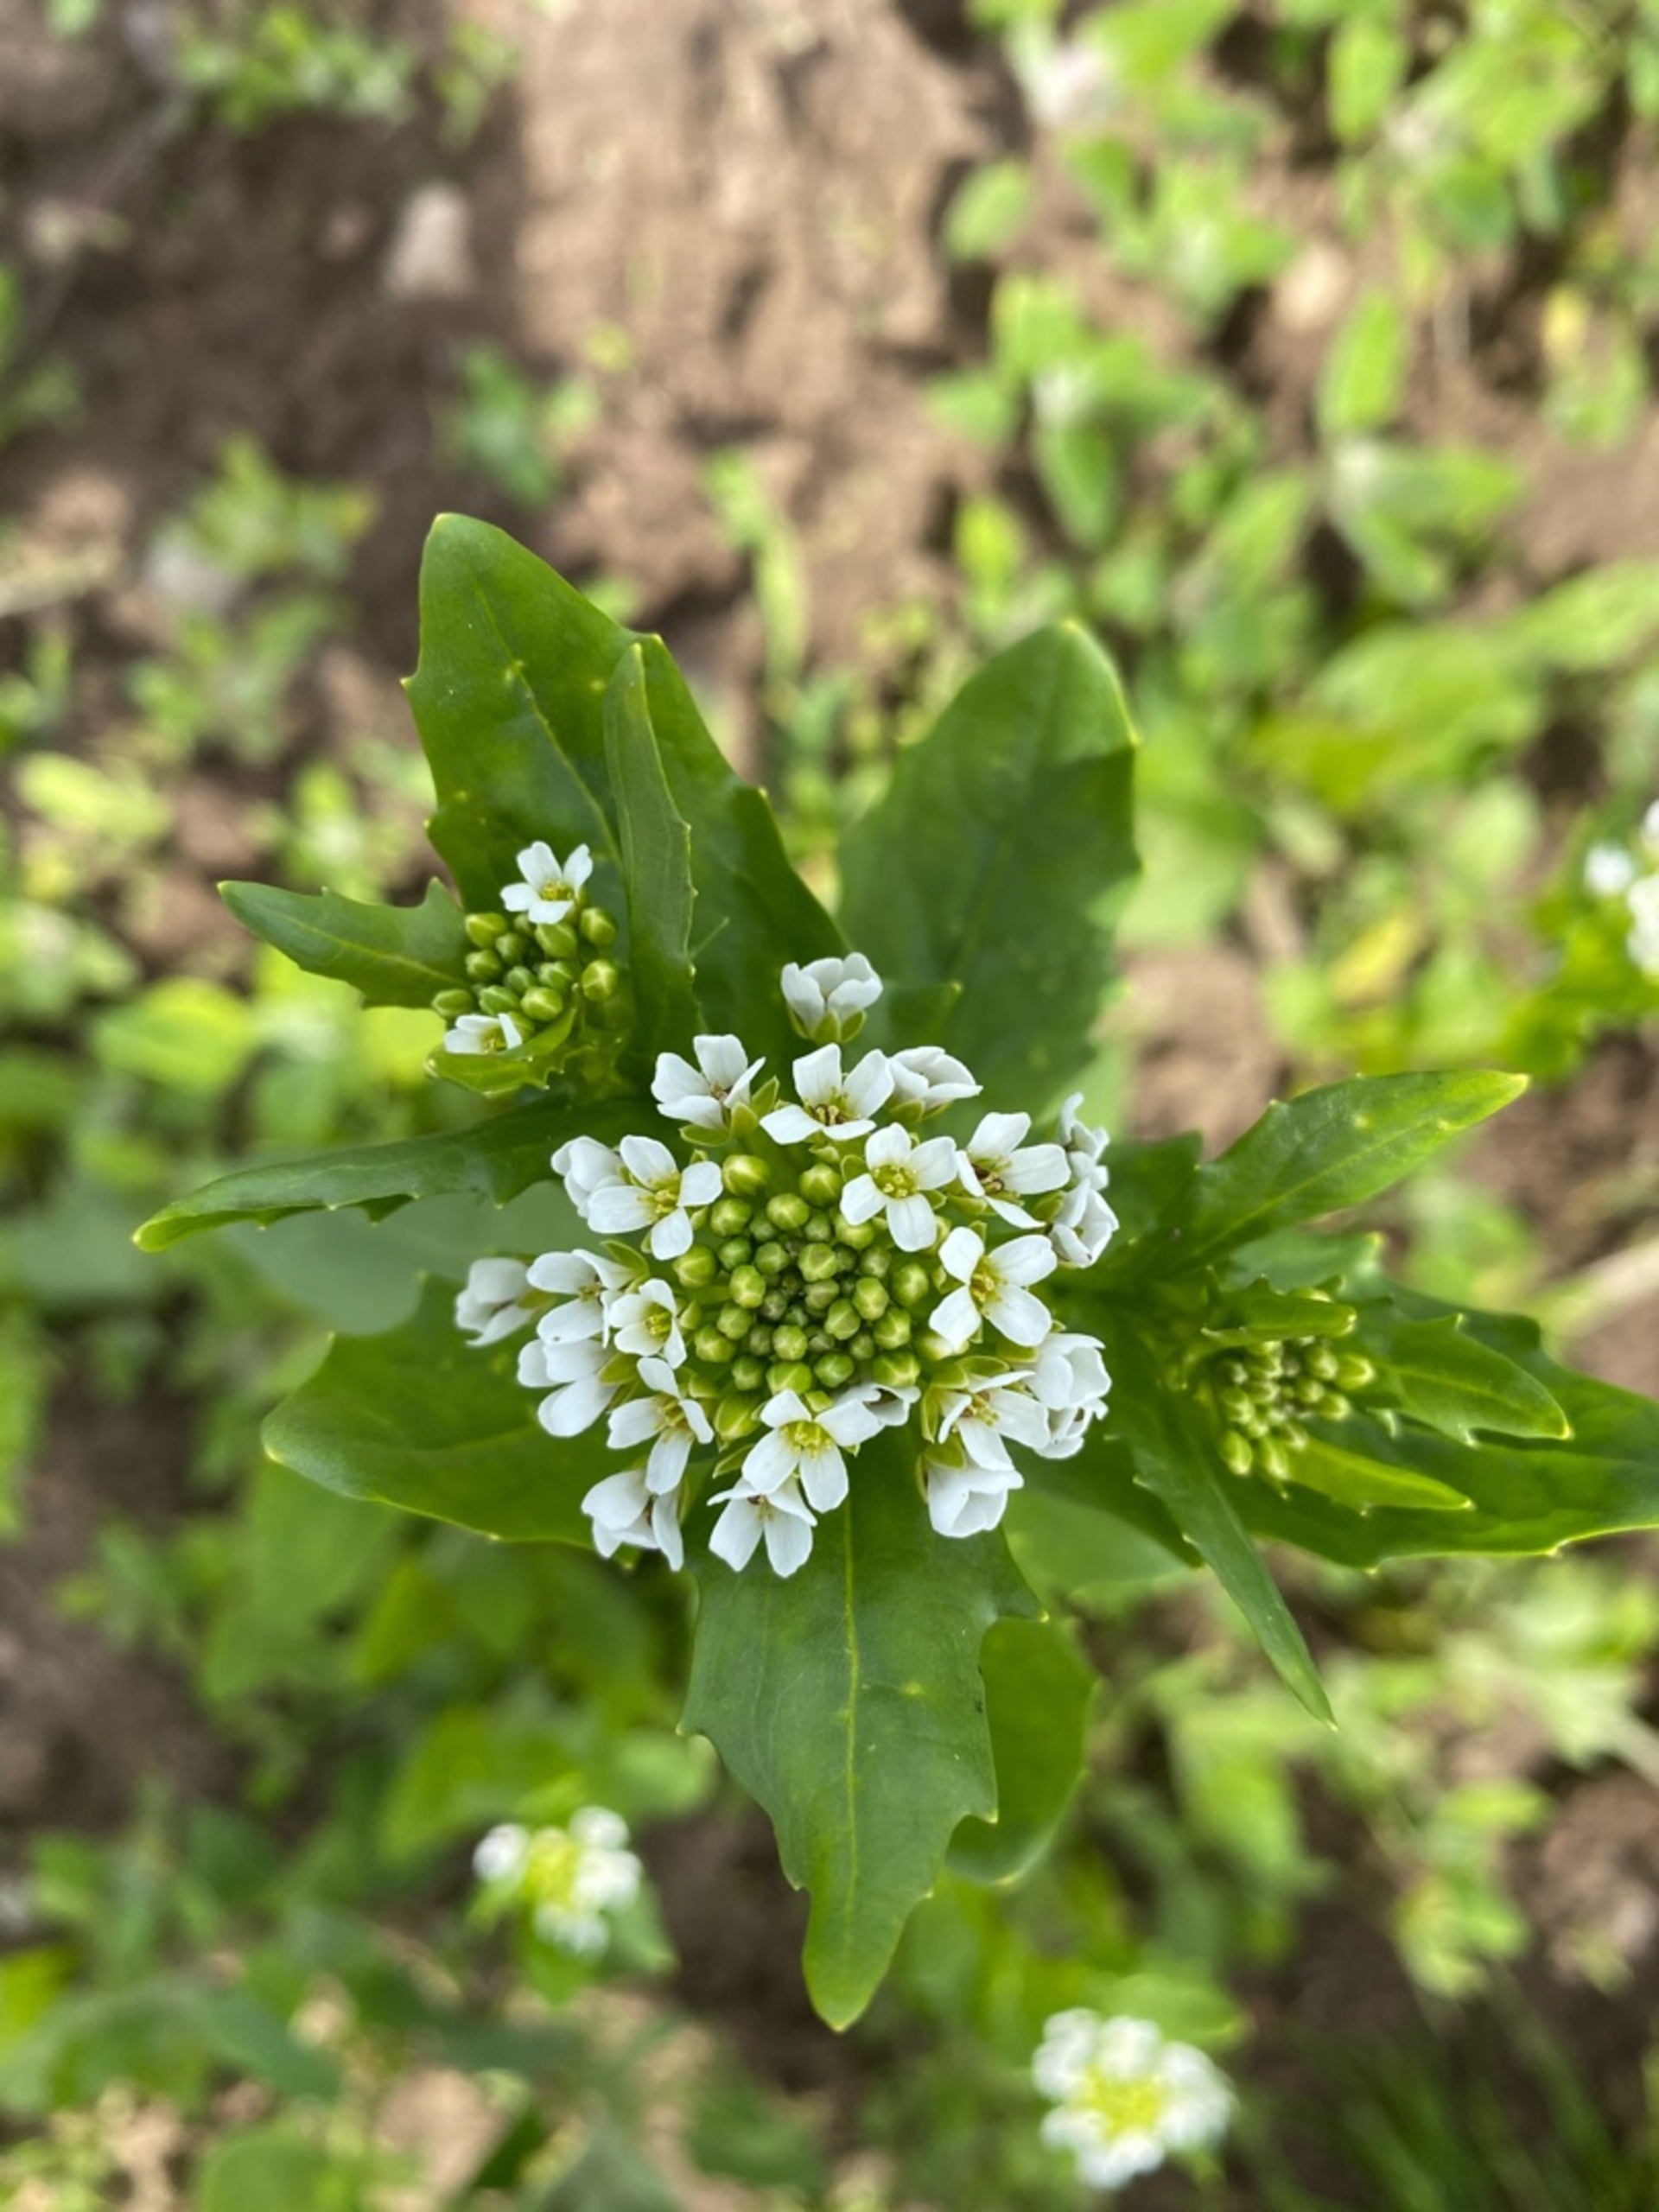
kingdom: Plantae
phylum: Tracheophyta
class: Magnoliopsida
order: Brassicales
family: Brassicaceae
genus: Thlaspi
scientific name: Thlaspi arvense
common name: Almindelig pengeurt
